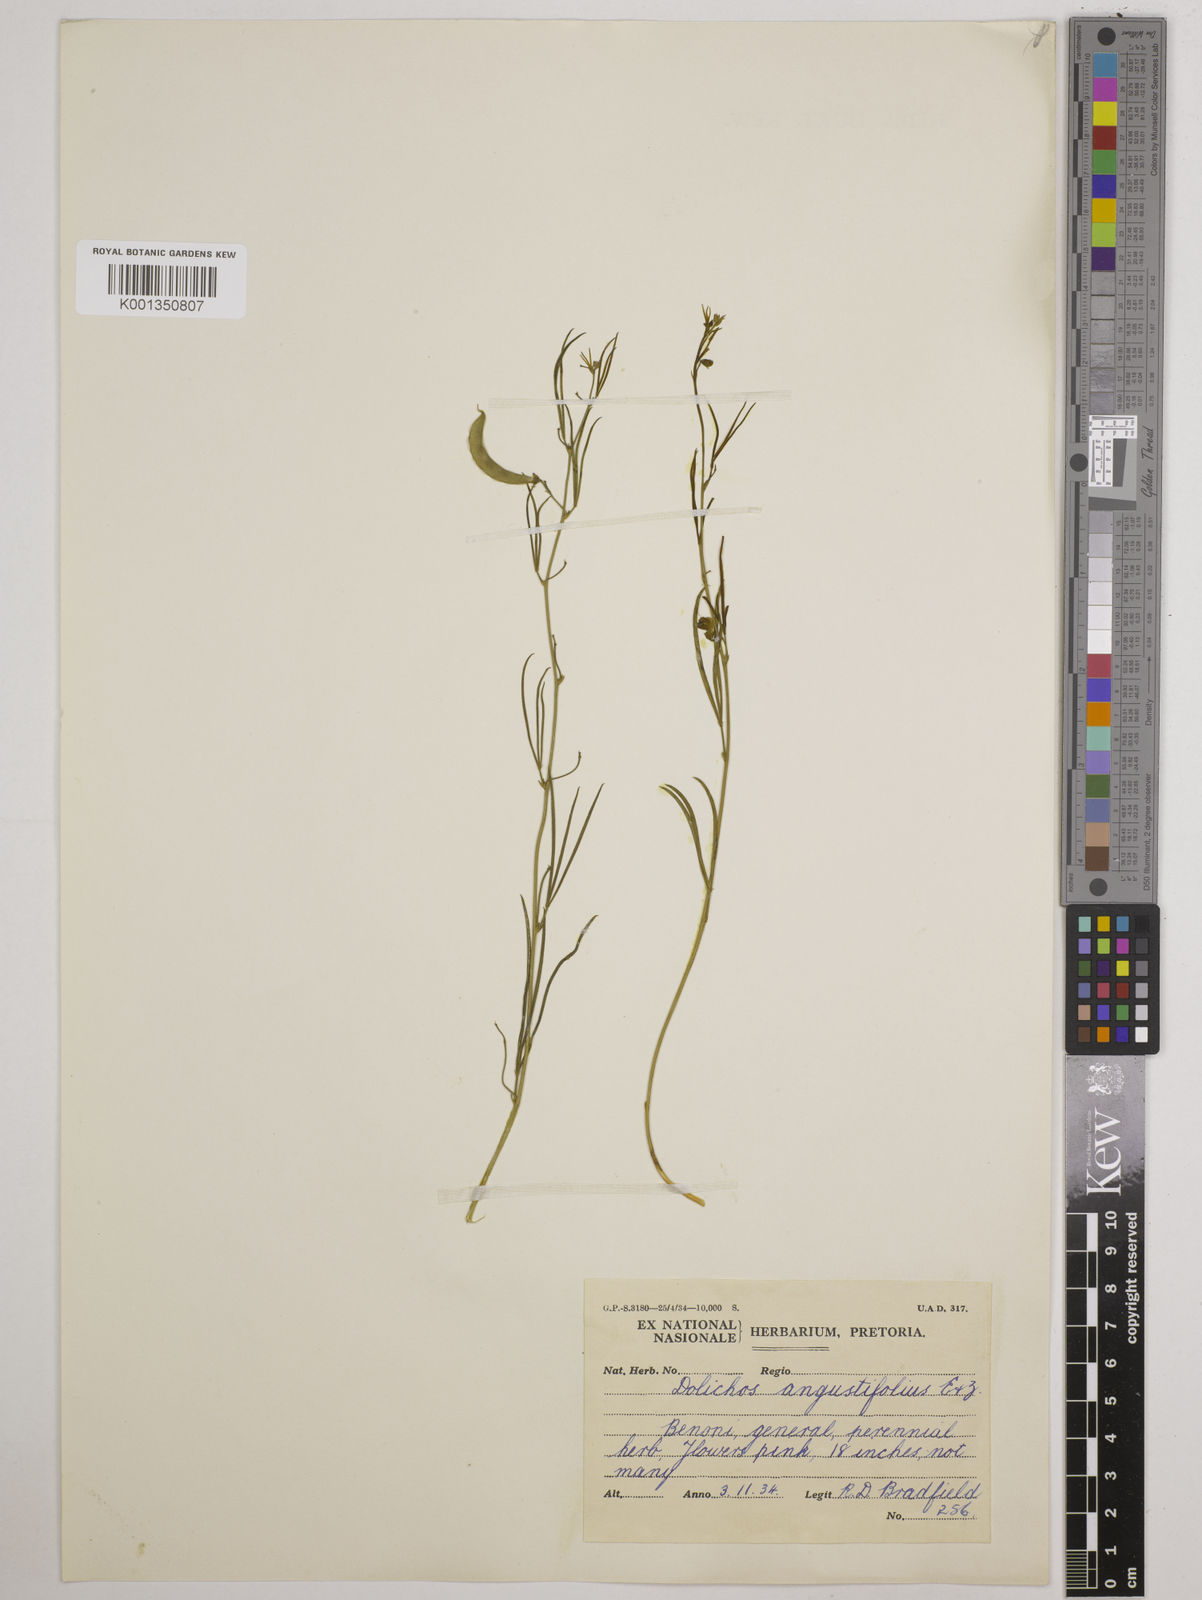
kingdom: Plantae
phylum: Tracheophyta
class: Magnoliopsida
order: Fabales
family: Fabaceae
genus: Dolichos
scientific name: Dolichos
